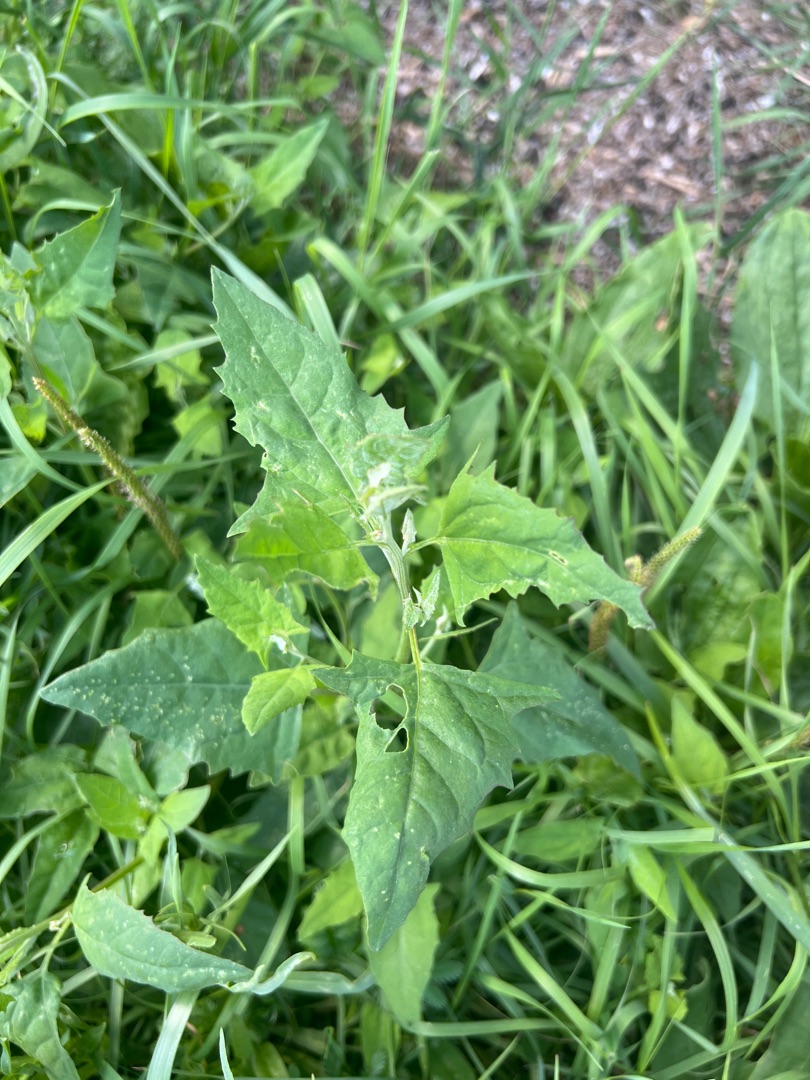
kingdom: Plantae
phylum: Tracheophyta
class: Magnoliopsida
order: Caryophyllales
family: Amaranthaceae
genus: Atriplex
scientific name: Atriplex prostrata
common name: Spyd-mælde
